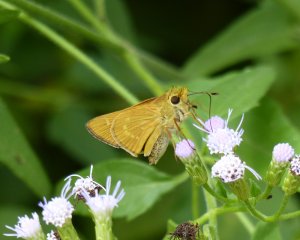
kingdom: Animalia
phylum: Arthropoda
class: Insecta
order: Lepidoptera
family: Hesperiidae
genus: Mellana
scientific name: Mellana eulogius
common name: Common Mellana
